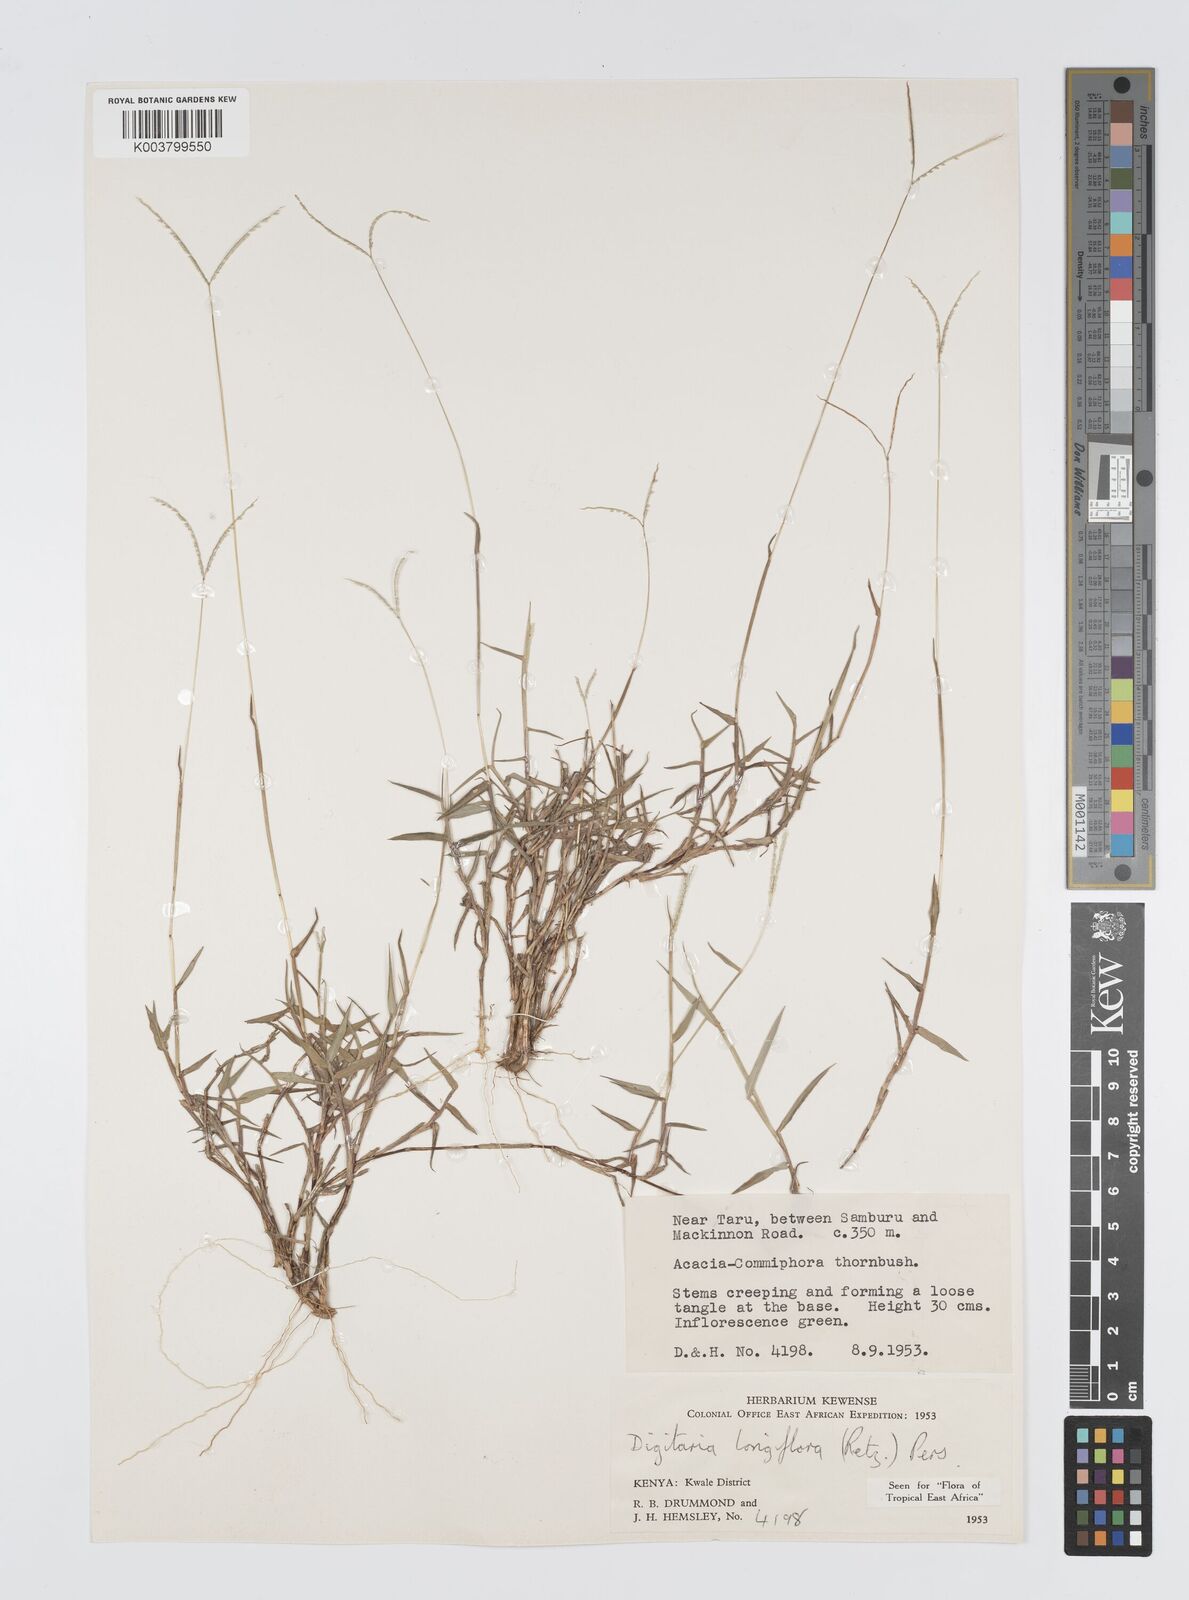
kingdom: Plantae
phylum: Tracheophyta
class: Liliopsida
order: Poales
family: Poaceae
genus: Digitaria
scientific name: Digitaria longiflora
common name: Wire crabgrass
